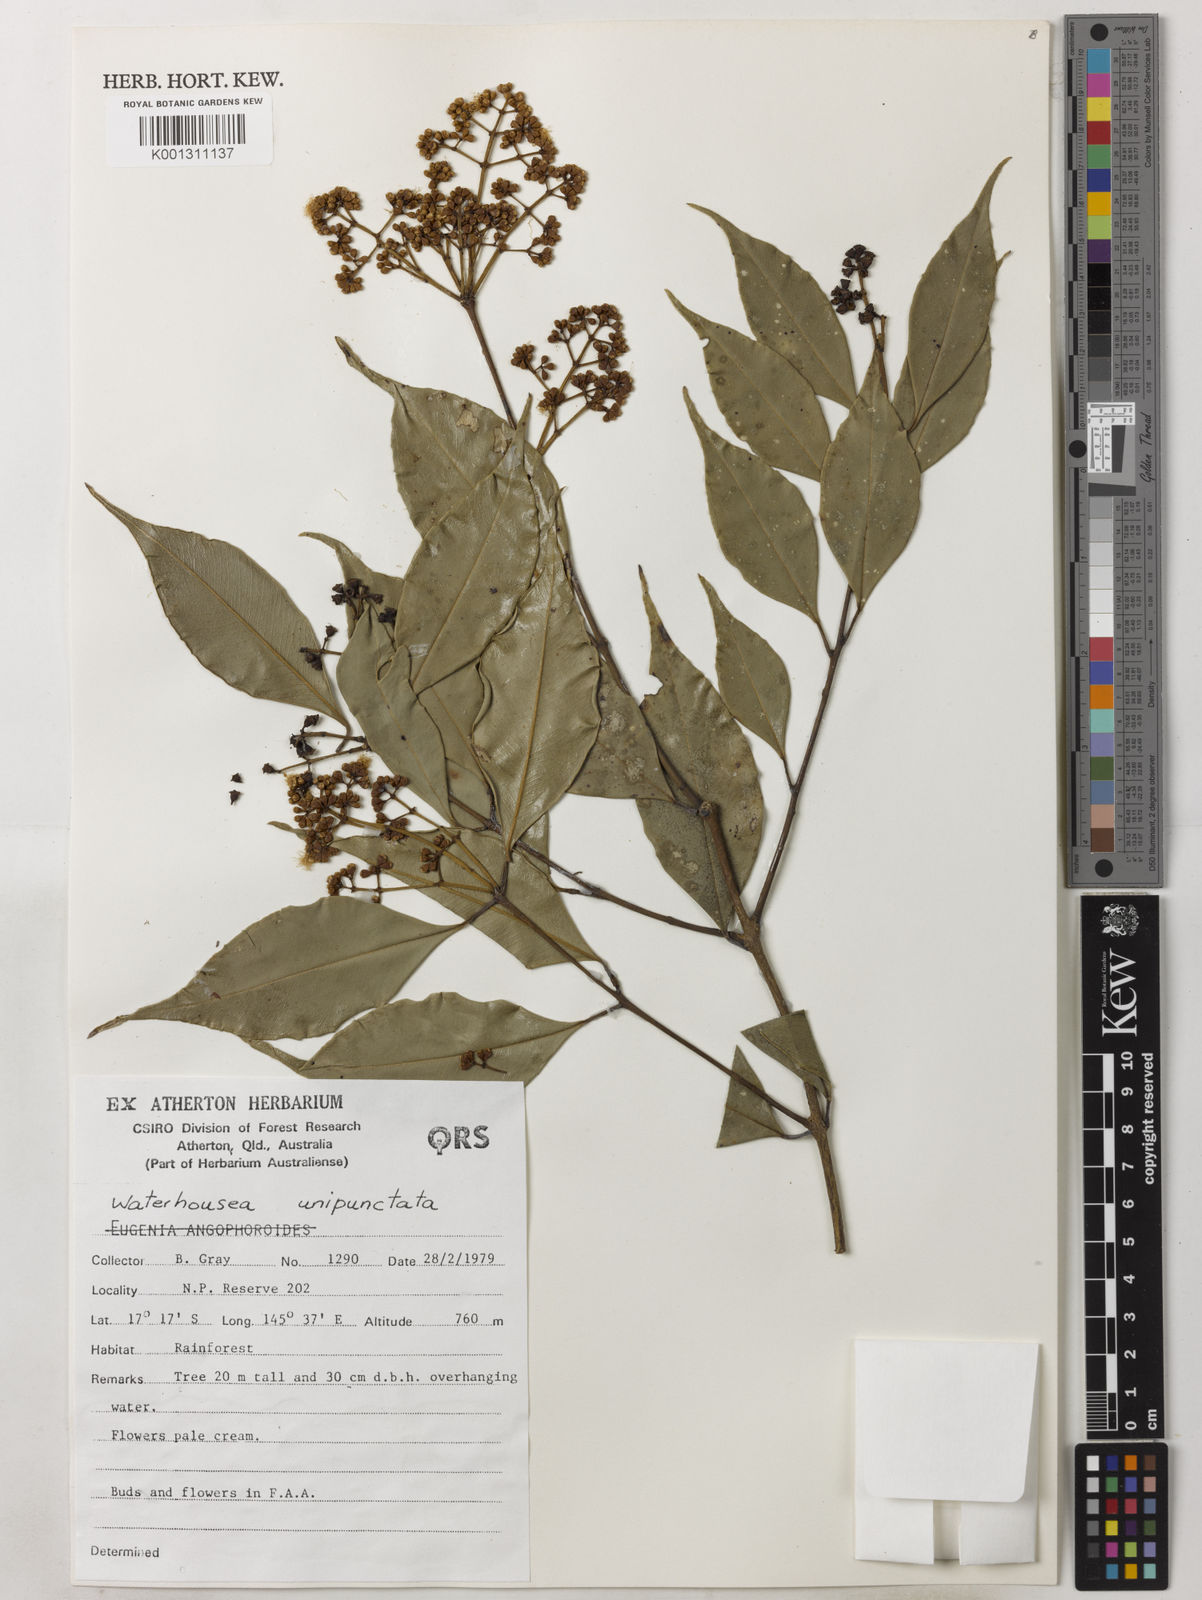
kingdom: Plantae
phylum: Tracheophyta
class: Magnoliopsida
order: Myrtales
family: Myrtaceae
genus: Syzygium
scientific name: Syzygium unipunctatum
